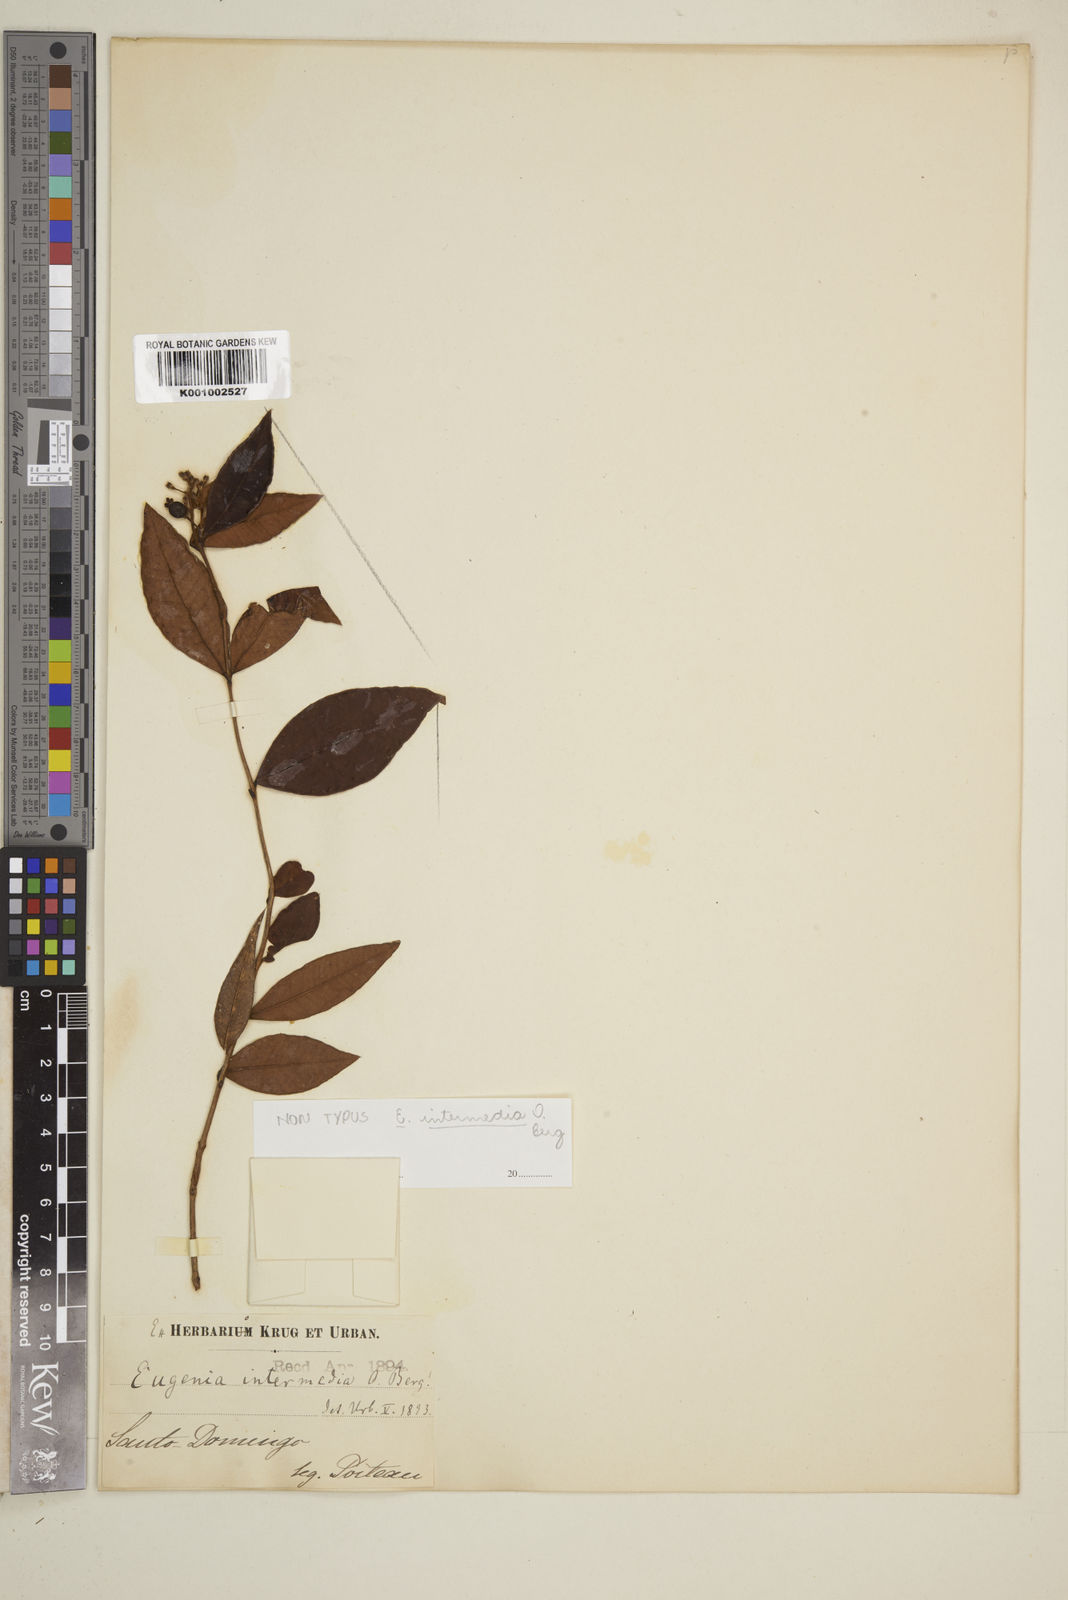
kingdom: Plantae
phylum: Tracheophyta
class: Magnoliopsida
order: Myrtales
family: Myrtaceae
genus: Eugenia
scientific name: Eugenia intermedia
